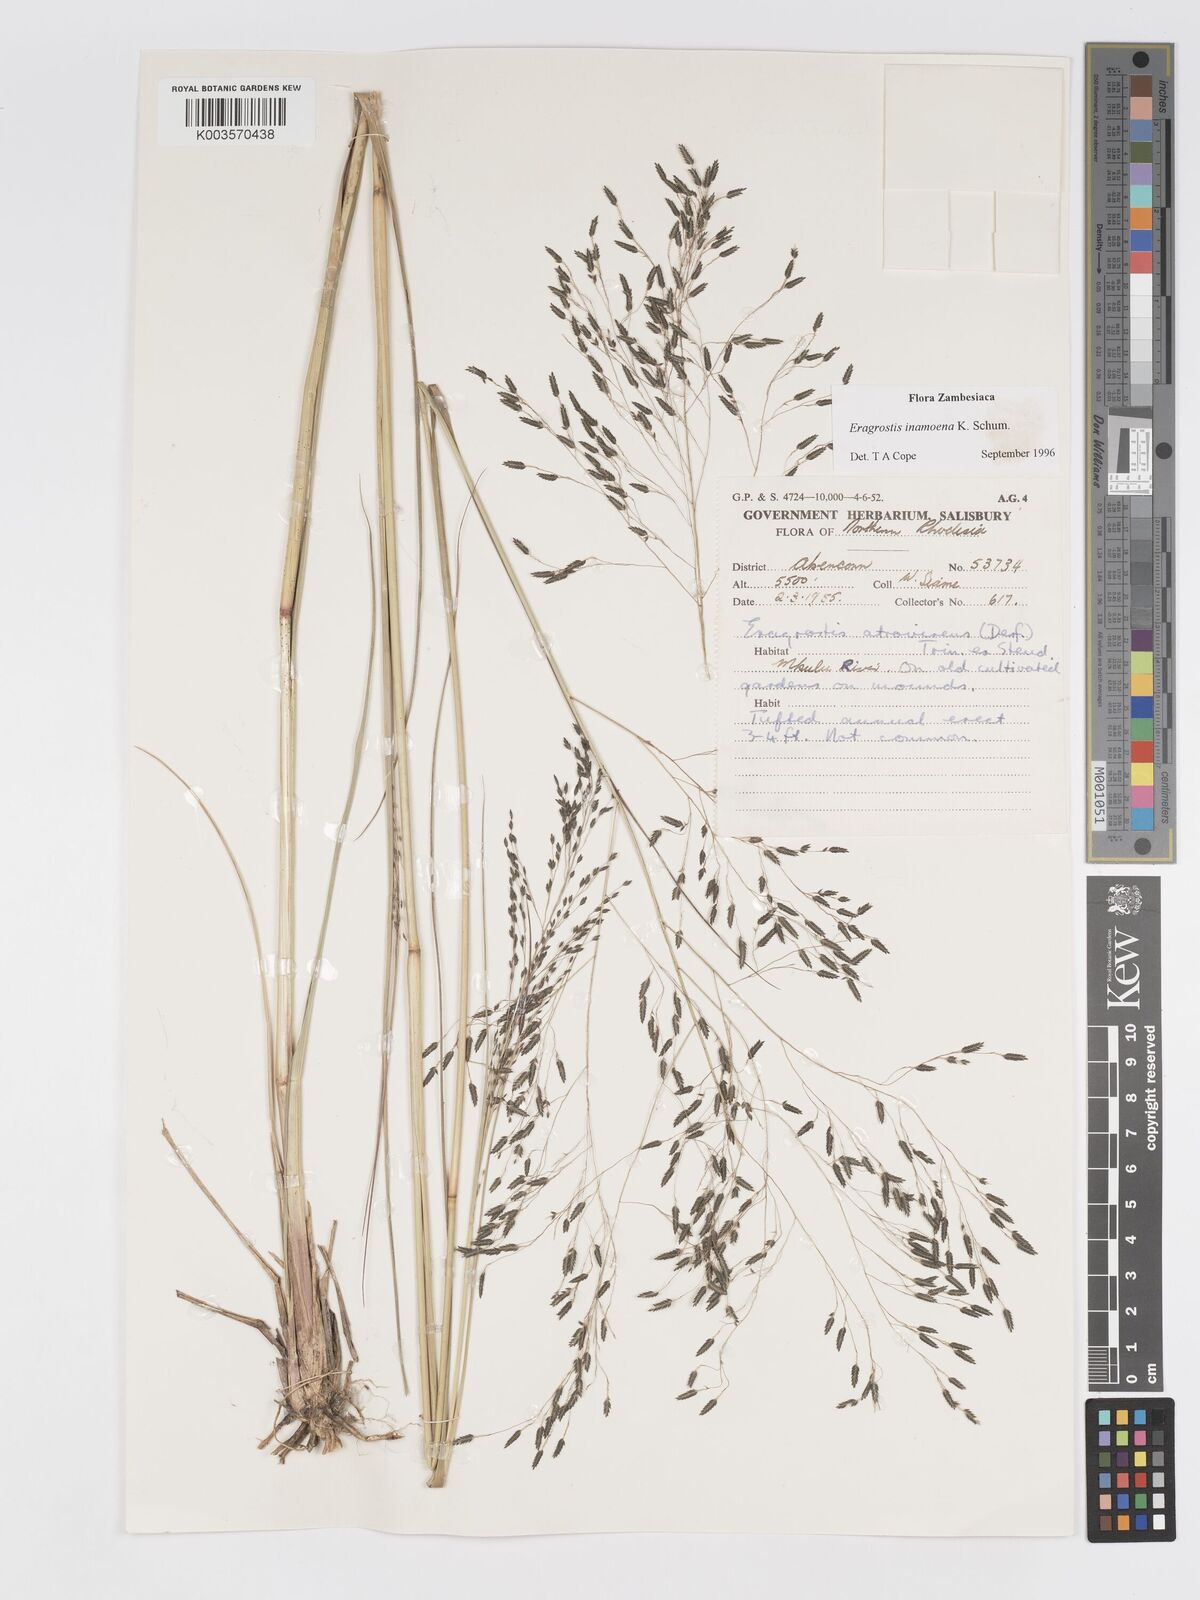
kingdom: Plantae
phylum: Tracheophyta
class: Liliopsida
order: Poales
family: Poaceae
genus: Eragrostis
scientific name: Eragrostis inamoena
